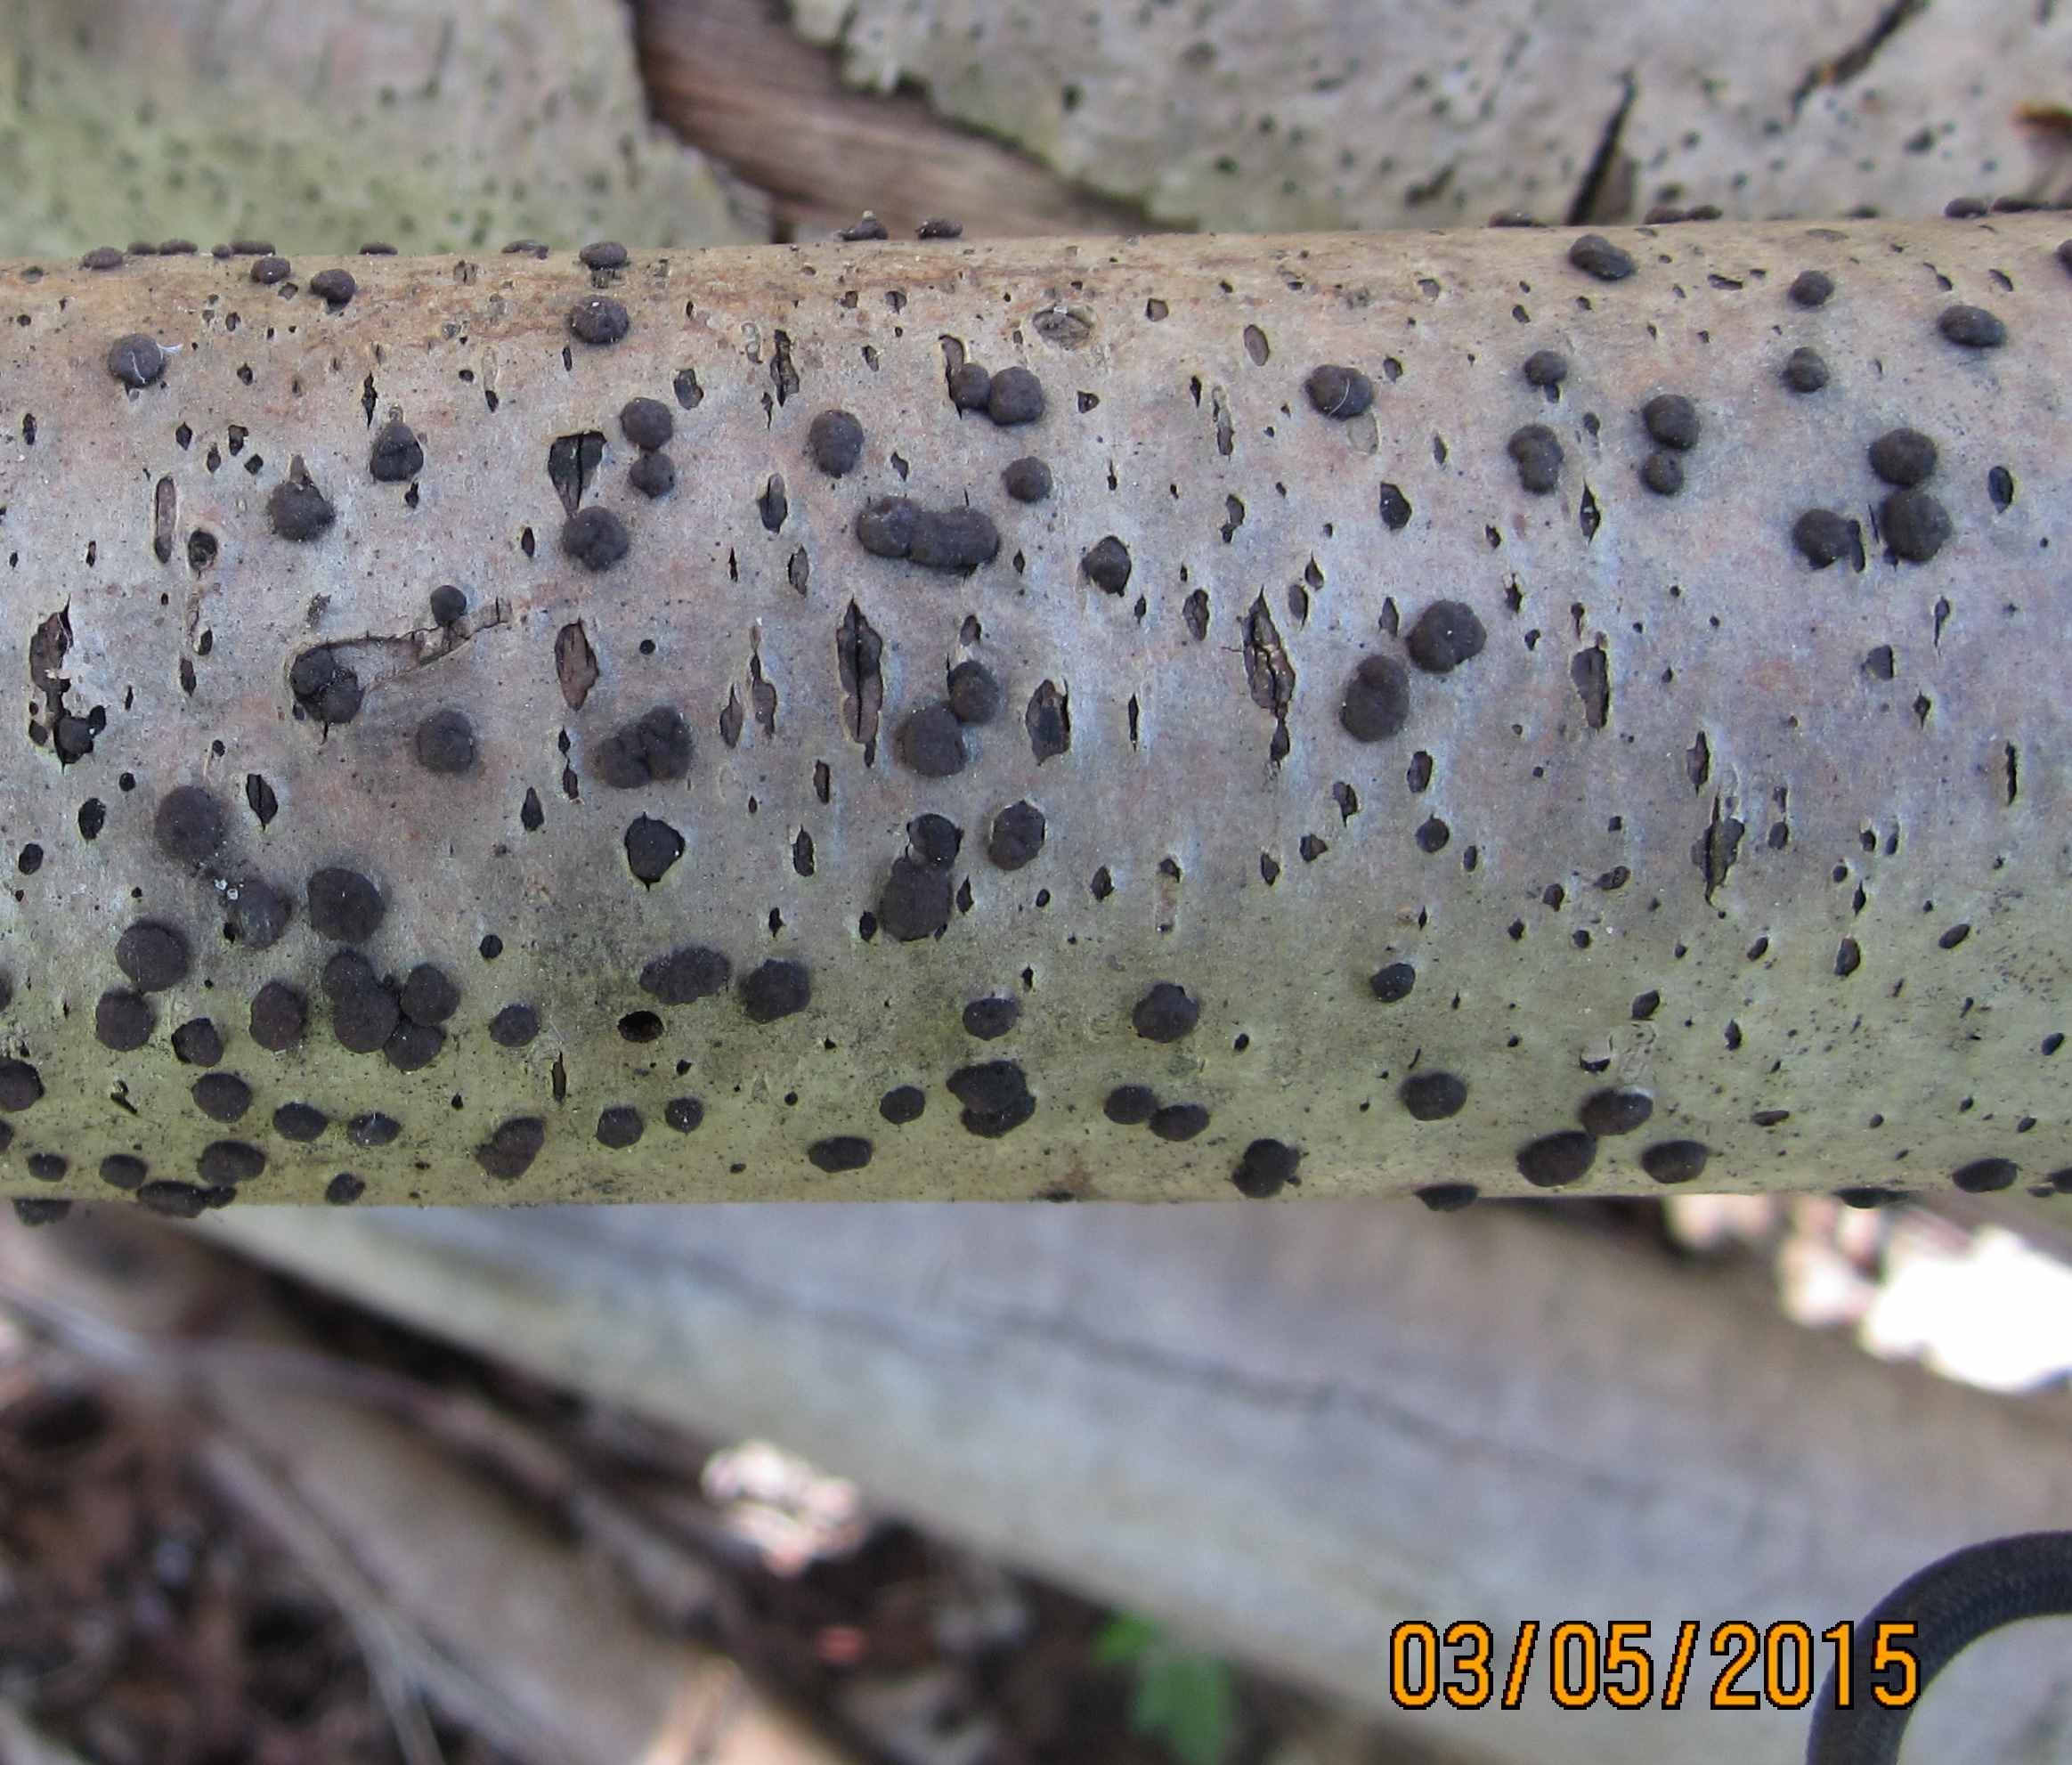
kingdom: Fungi
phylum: Ascomycota
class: Sordariomycetes
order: Xylariales
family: Hypoxylaceae
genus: Hypoxylon
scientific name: Hypoxylon fuscum
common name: kegleformet kulbær
